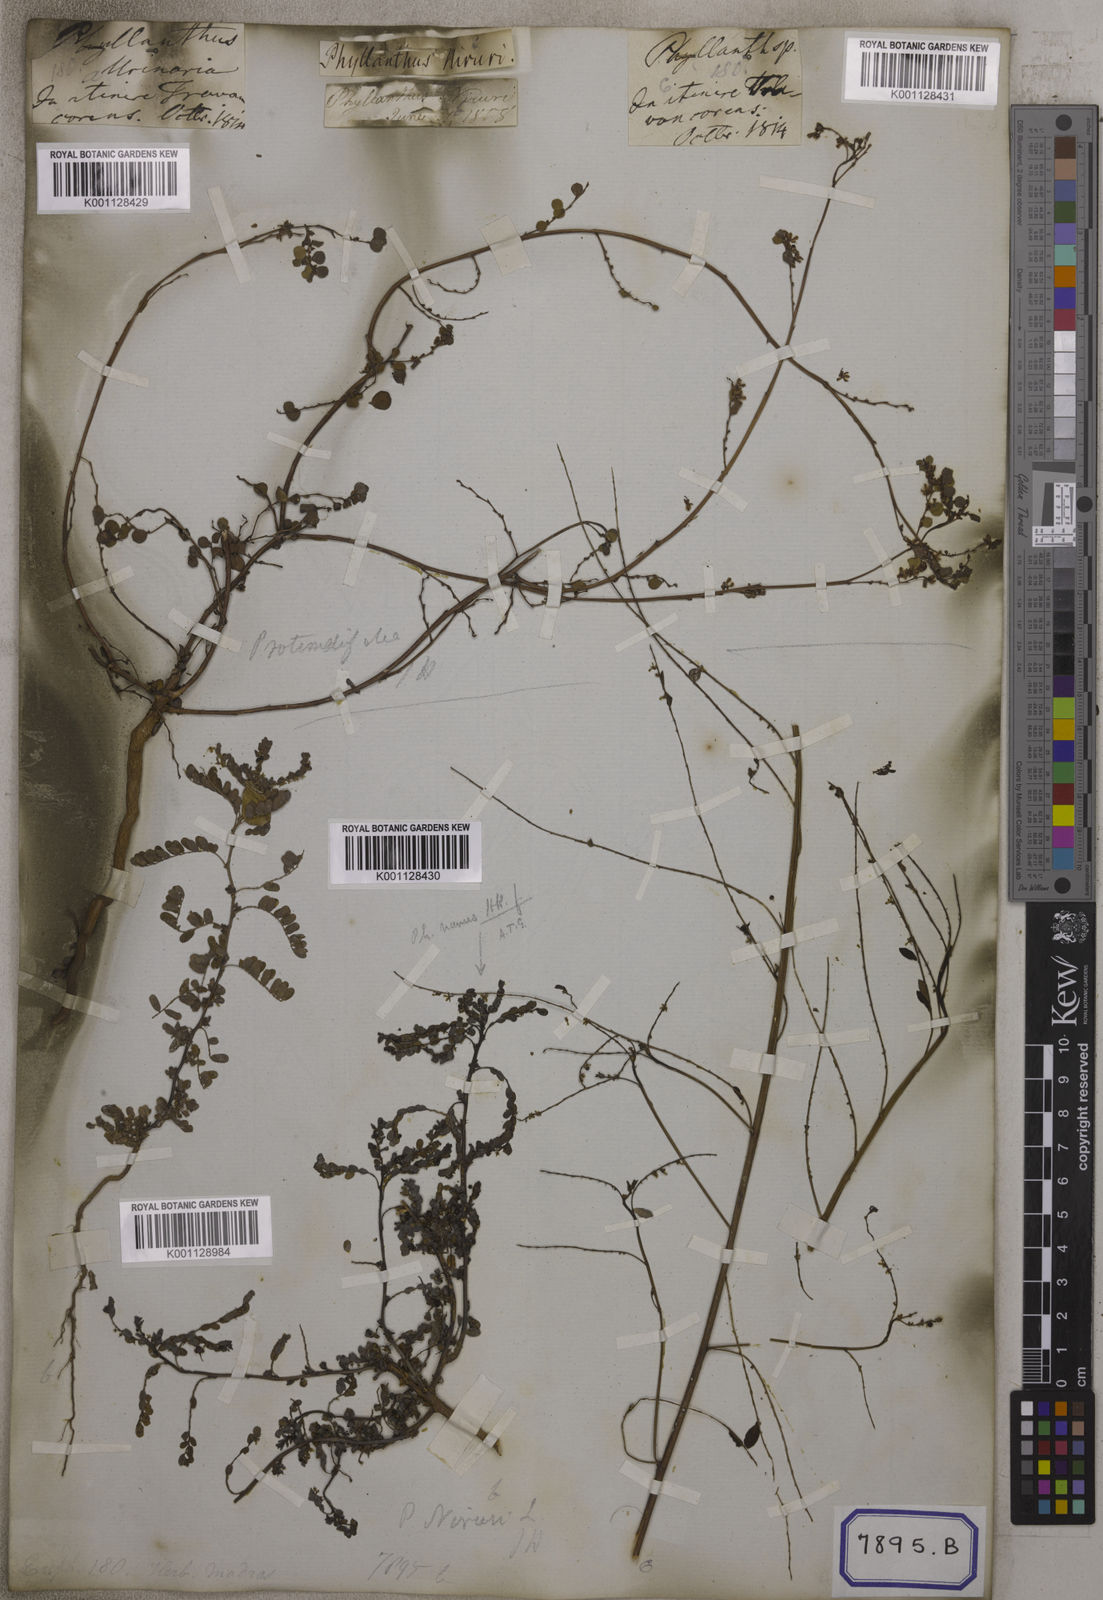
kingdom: Plantae
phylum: Tracheophyta
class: Magnoliopsida
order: Malpighiales
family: Euphorbiaceae
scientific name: Euphorbiaceae
